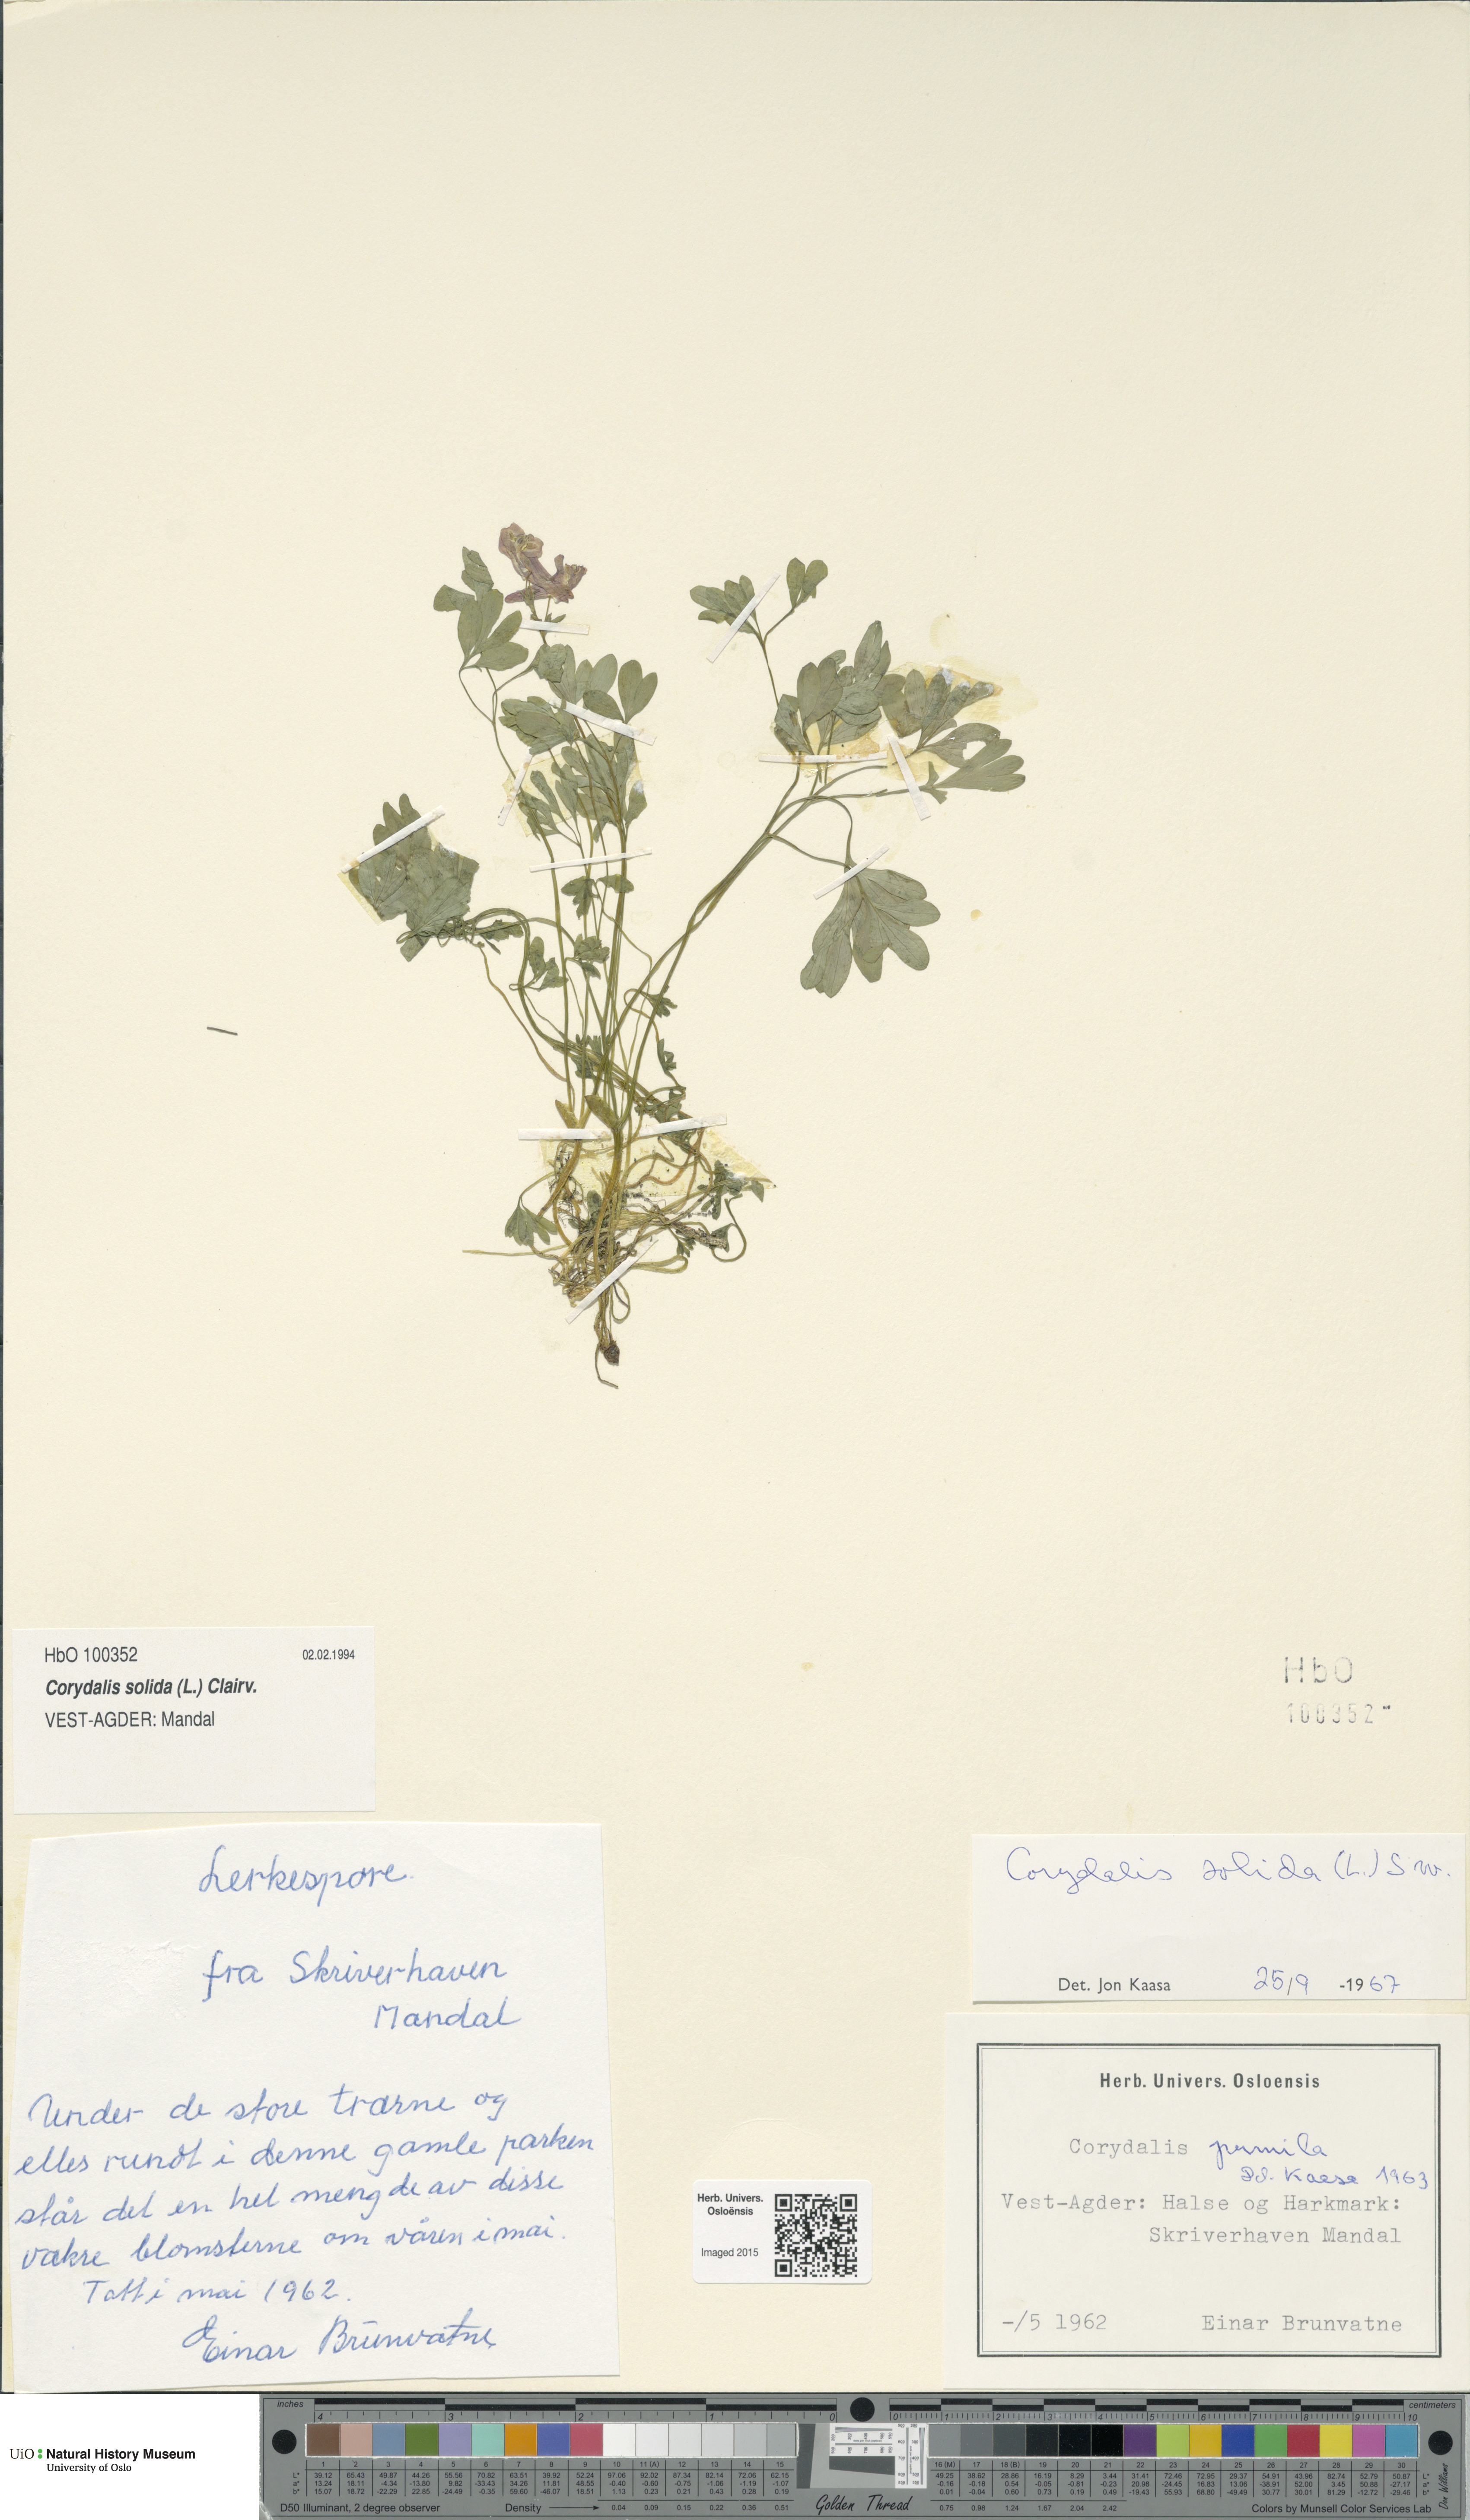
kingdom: Plantae
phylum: Tracheophyta
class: Magnoliopsida
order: Ranunculales
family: Papaveraceae
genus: Corydalis
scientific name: Corydalis solida
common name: Bird-in-a-bush
